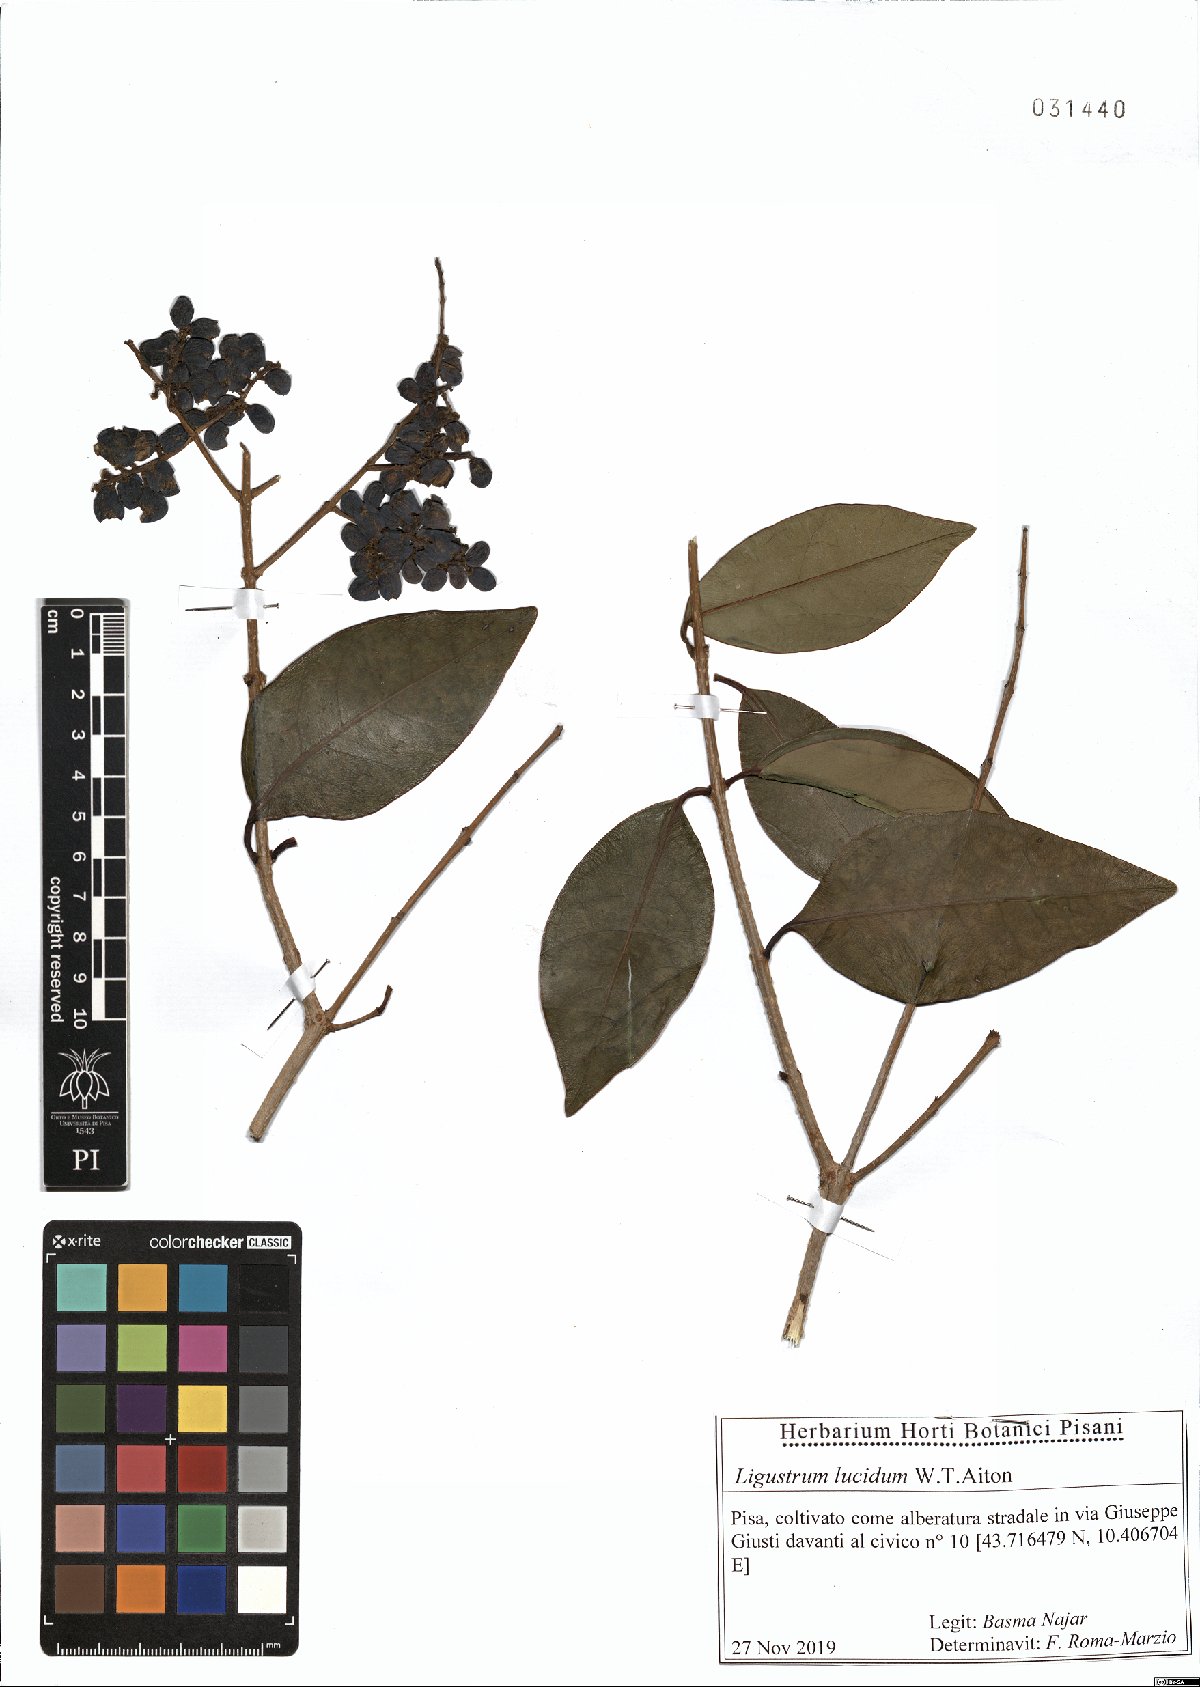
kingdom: Plantae
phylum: Tracheophyta
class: Magnoliopsida
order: Lamiales
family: Oleaceae
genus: Ligustrum
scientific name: Ligustrum lucidum
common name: Glossy privet
